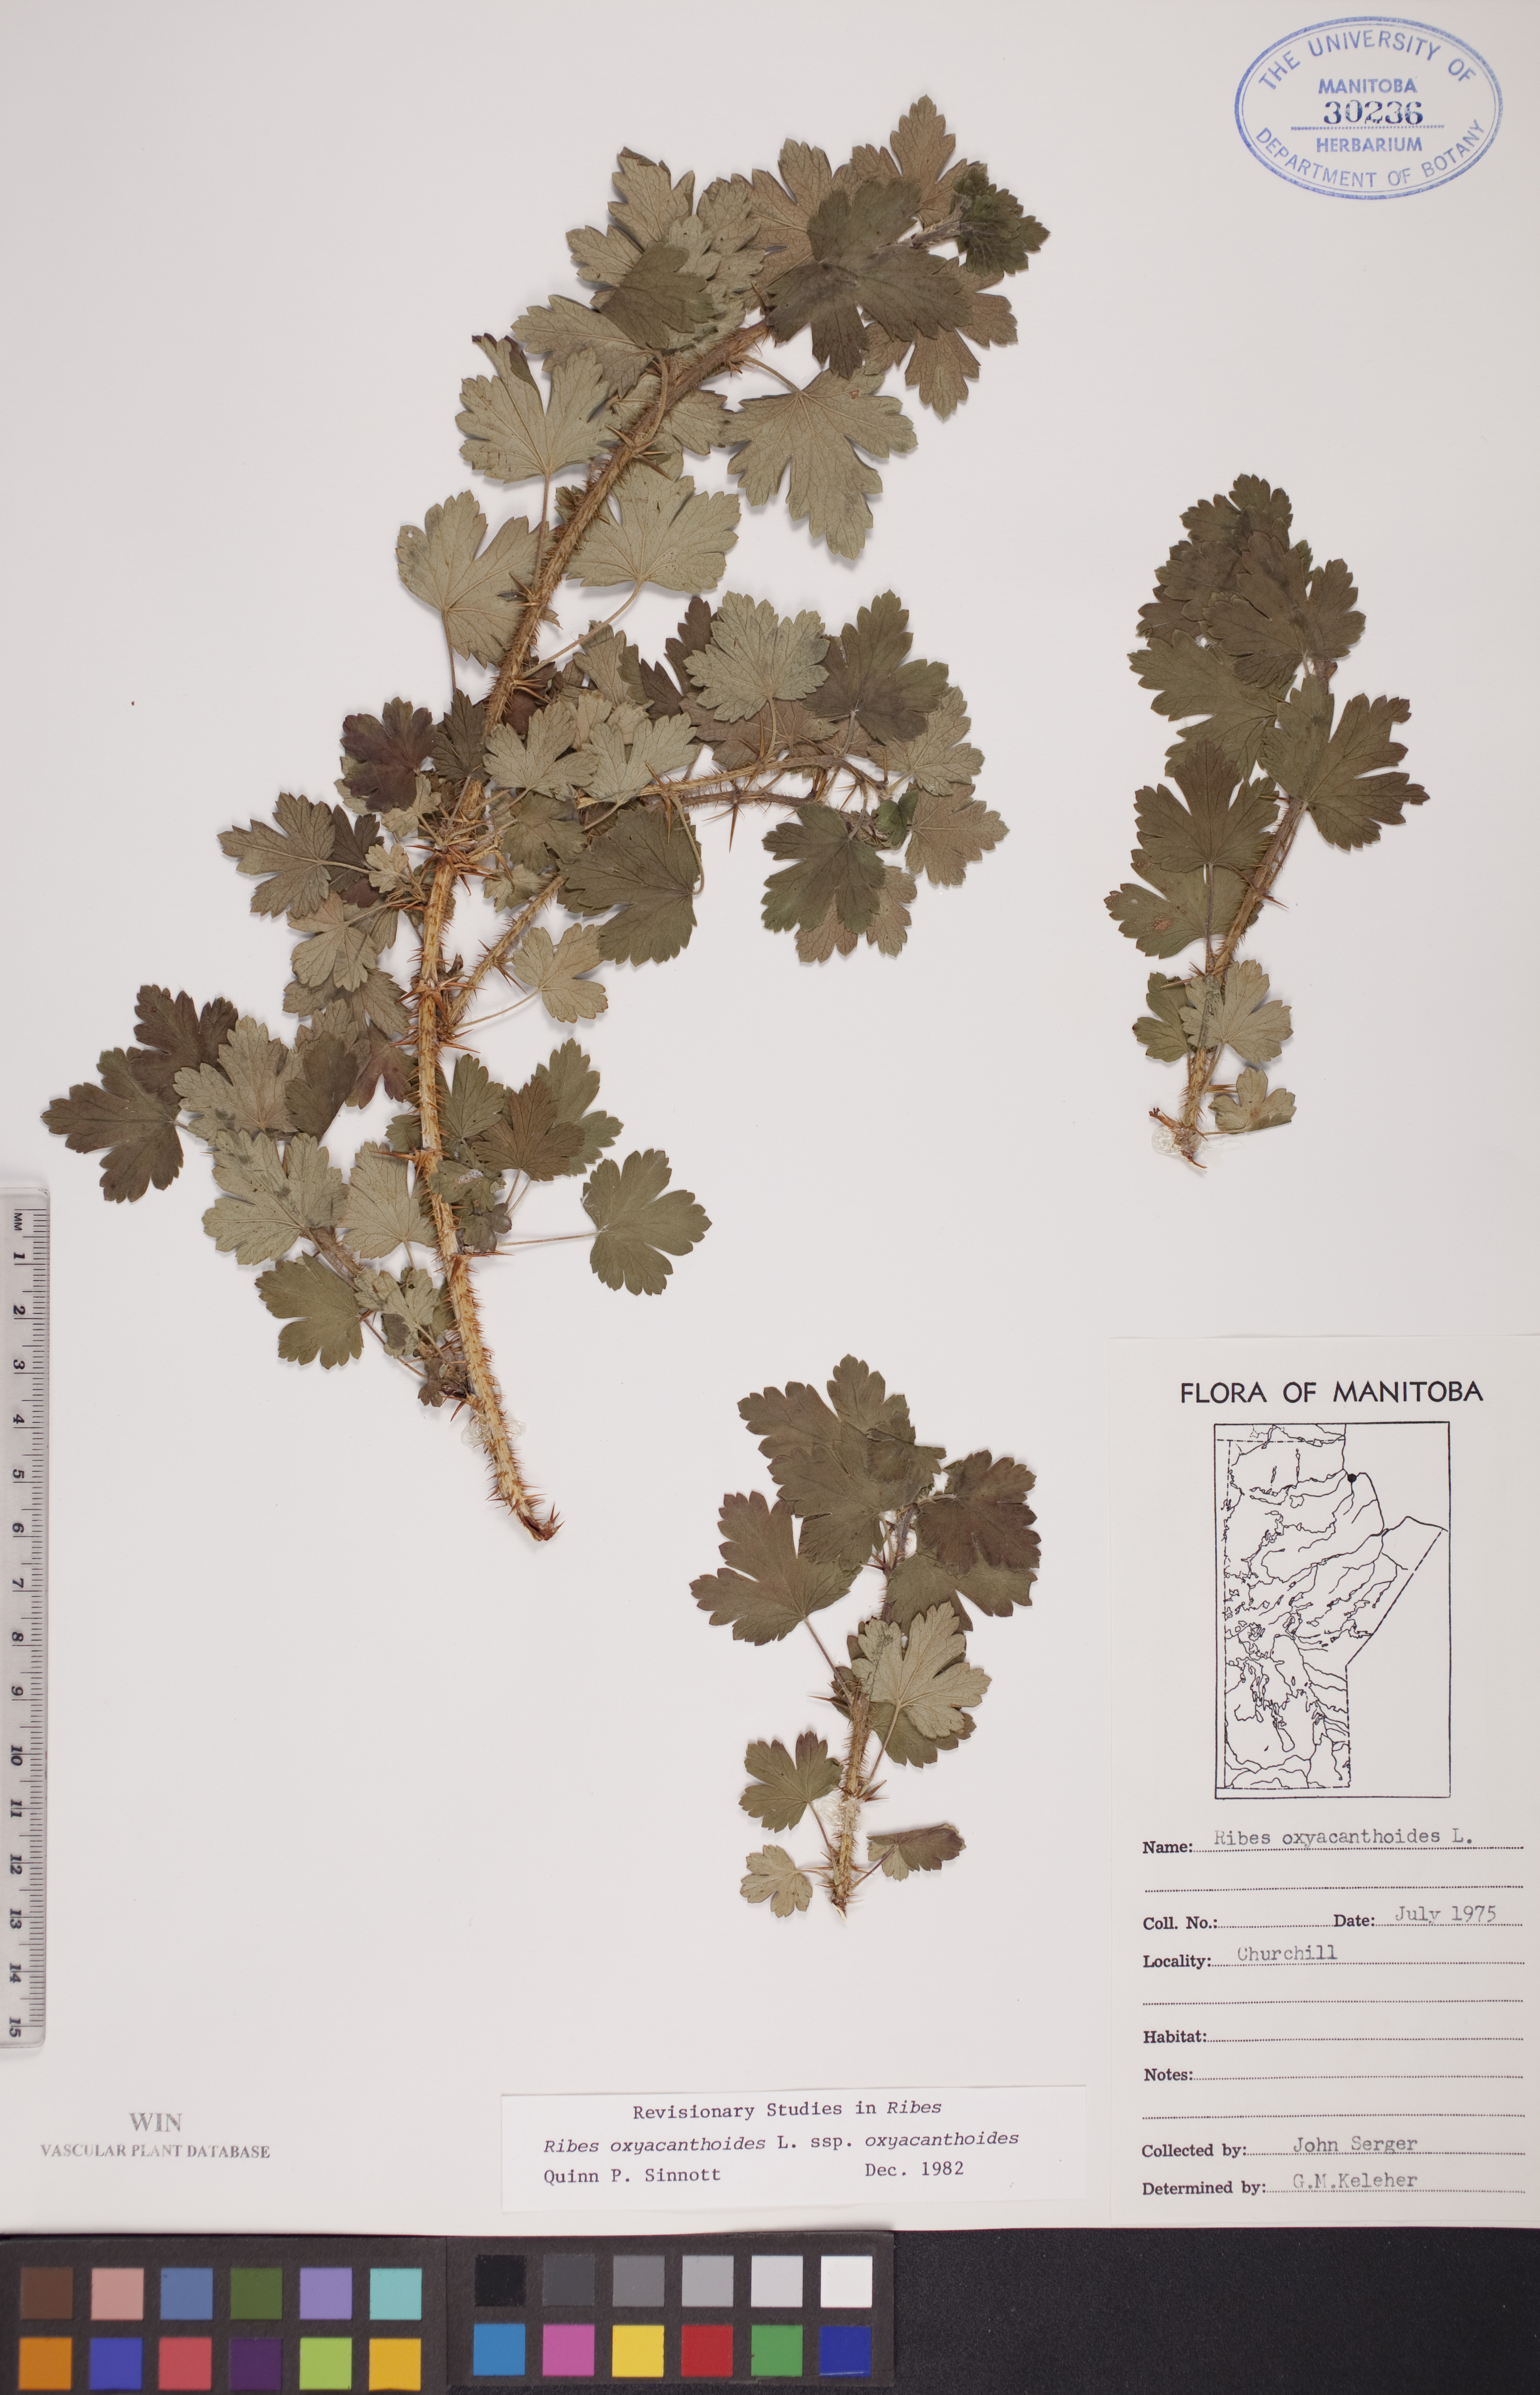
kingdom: Plantae
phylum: Tracheophyta
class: Magnoliopsida
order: Saxifragales
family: Grossulariaceae
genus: Ribes
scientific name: Ribes oxyacanthoides
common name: Northern gooseberry
